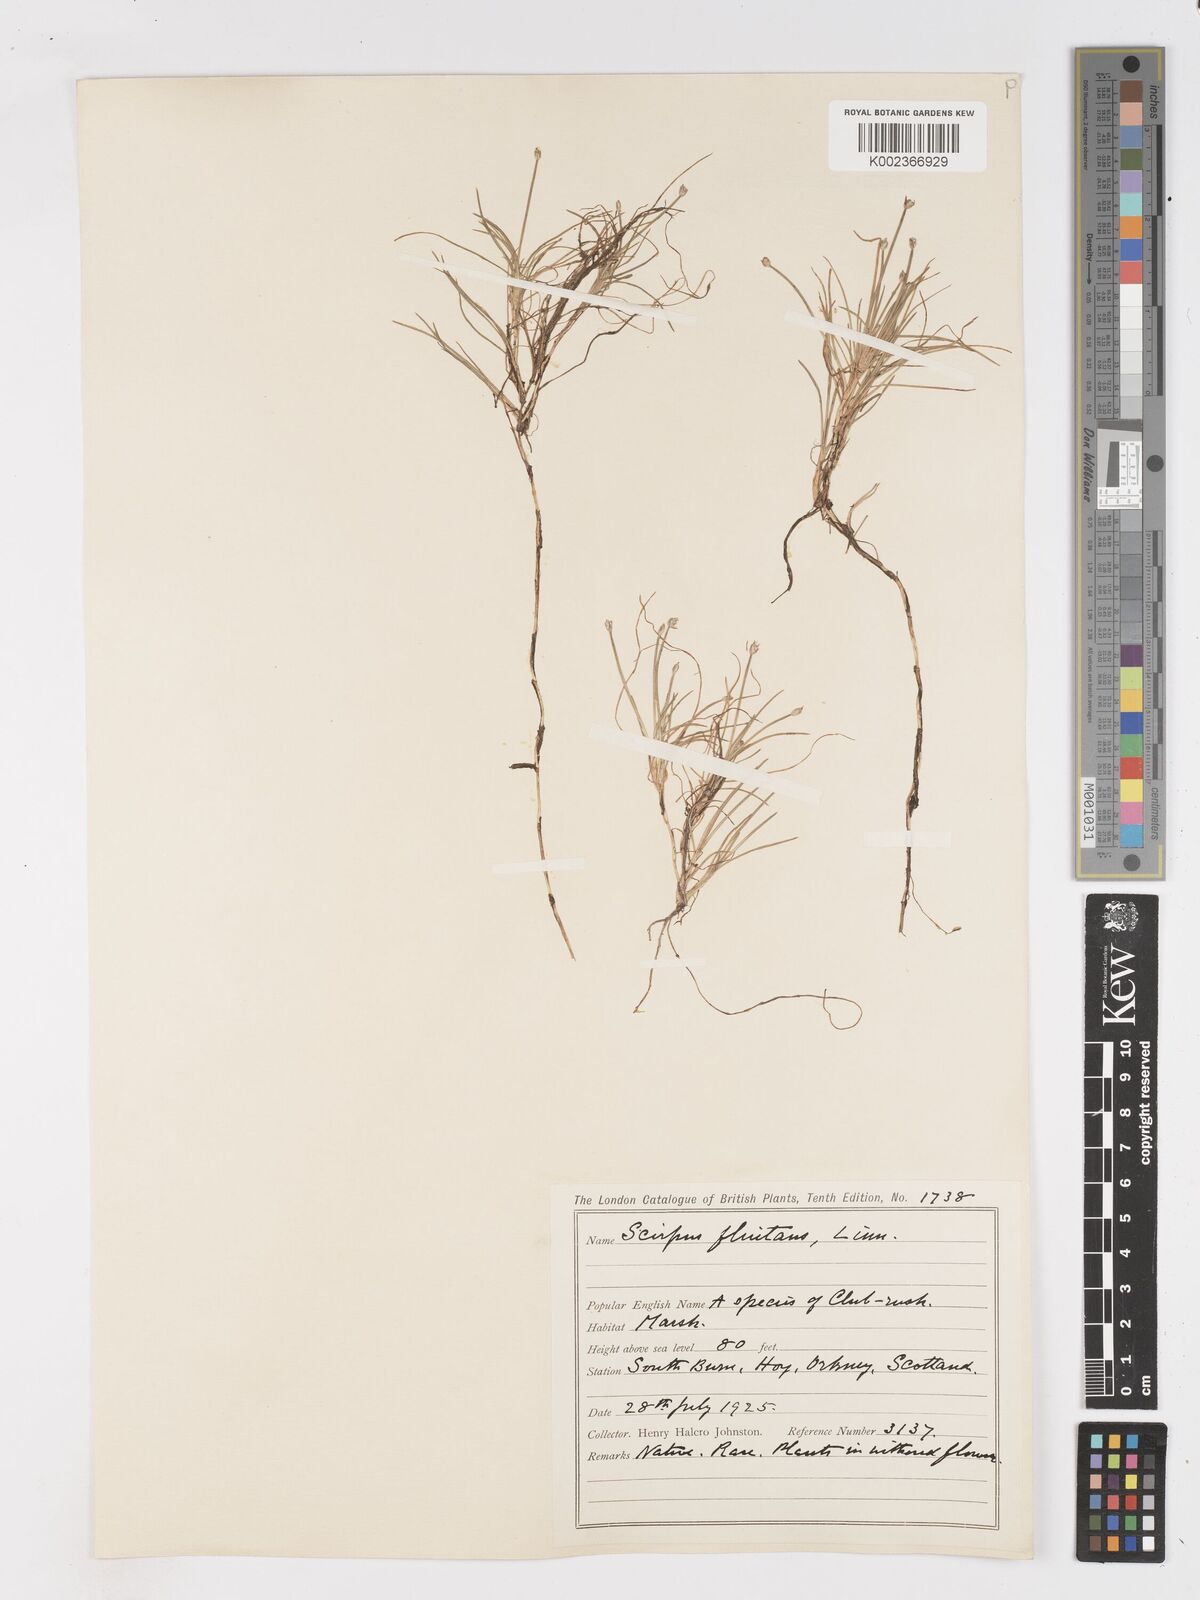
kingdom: Plantae
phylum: Tracheophyta
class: Liliopsida
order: Poales
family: Cyperaceae
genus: Isolepis
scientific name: Isolepis fluitans
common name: Floating club-rush
